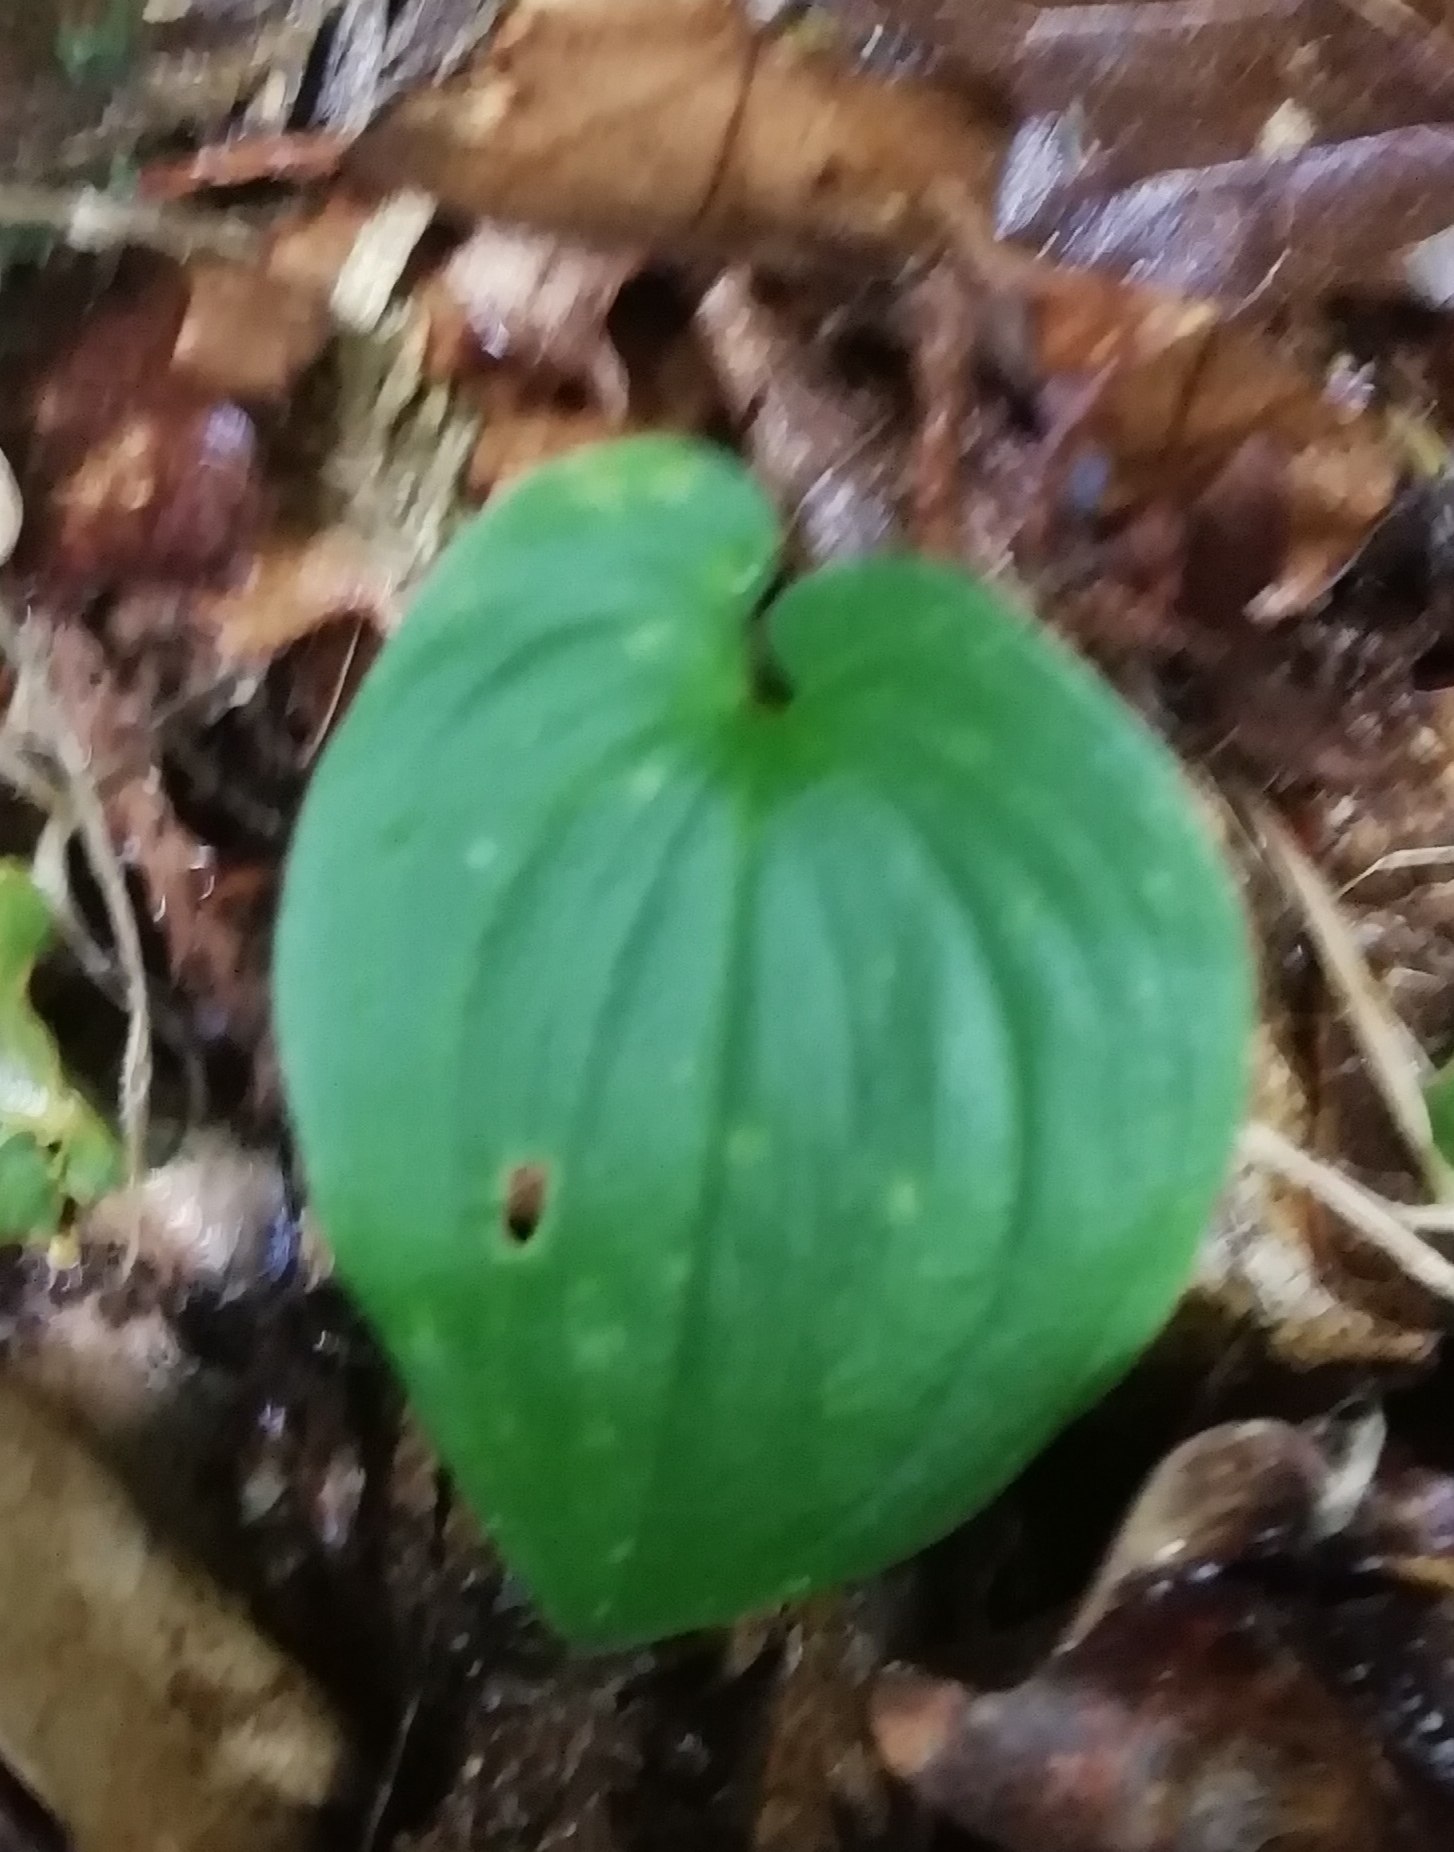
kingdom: Plantae
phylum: Tracheophyta
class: Liliopsida
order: Asparagales
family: Asparagaceae
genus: Maianthemum
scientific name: Maianthemum bifolium
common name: Majblomst
